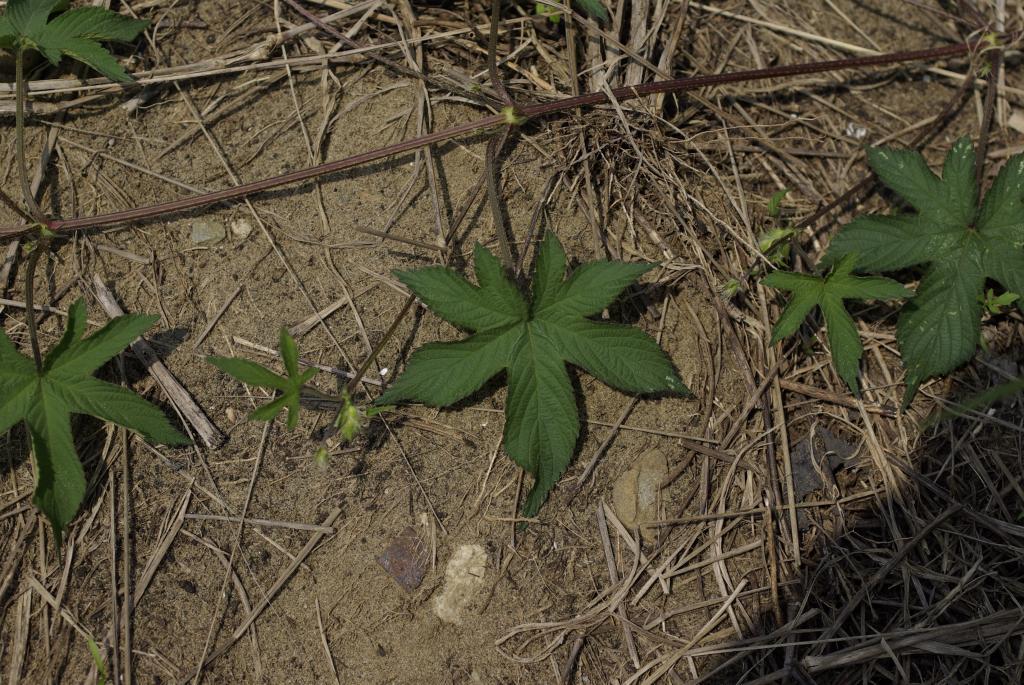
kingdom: Plantae
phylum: Tracheophyta
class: Magnoliopsida
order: Rosales
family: Cannabaceae
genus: Humulus
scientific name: Humulus scandens
